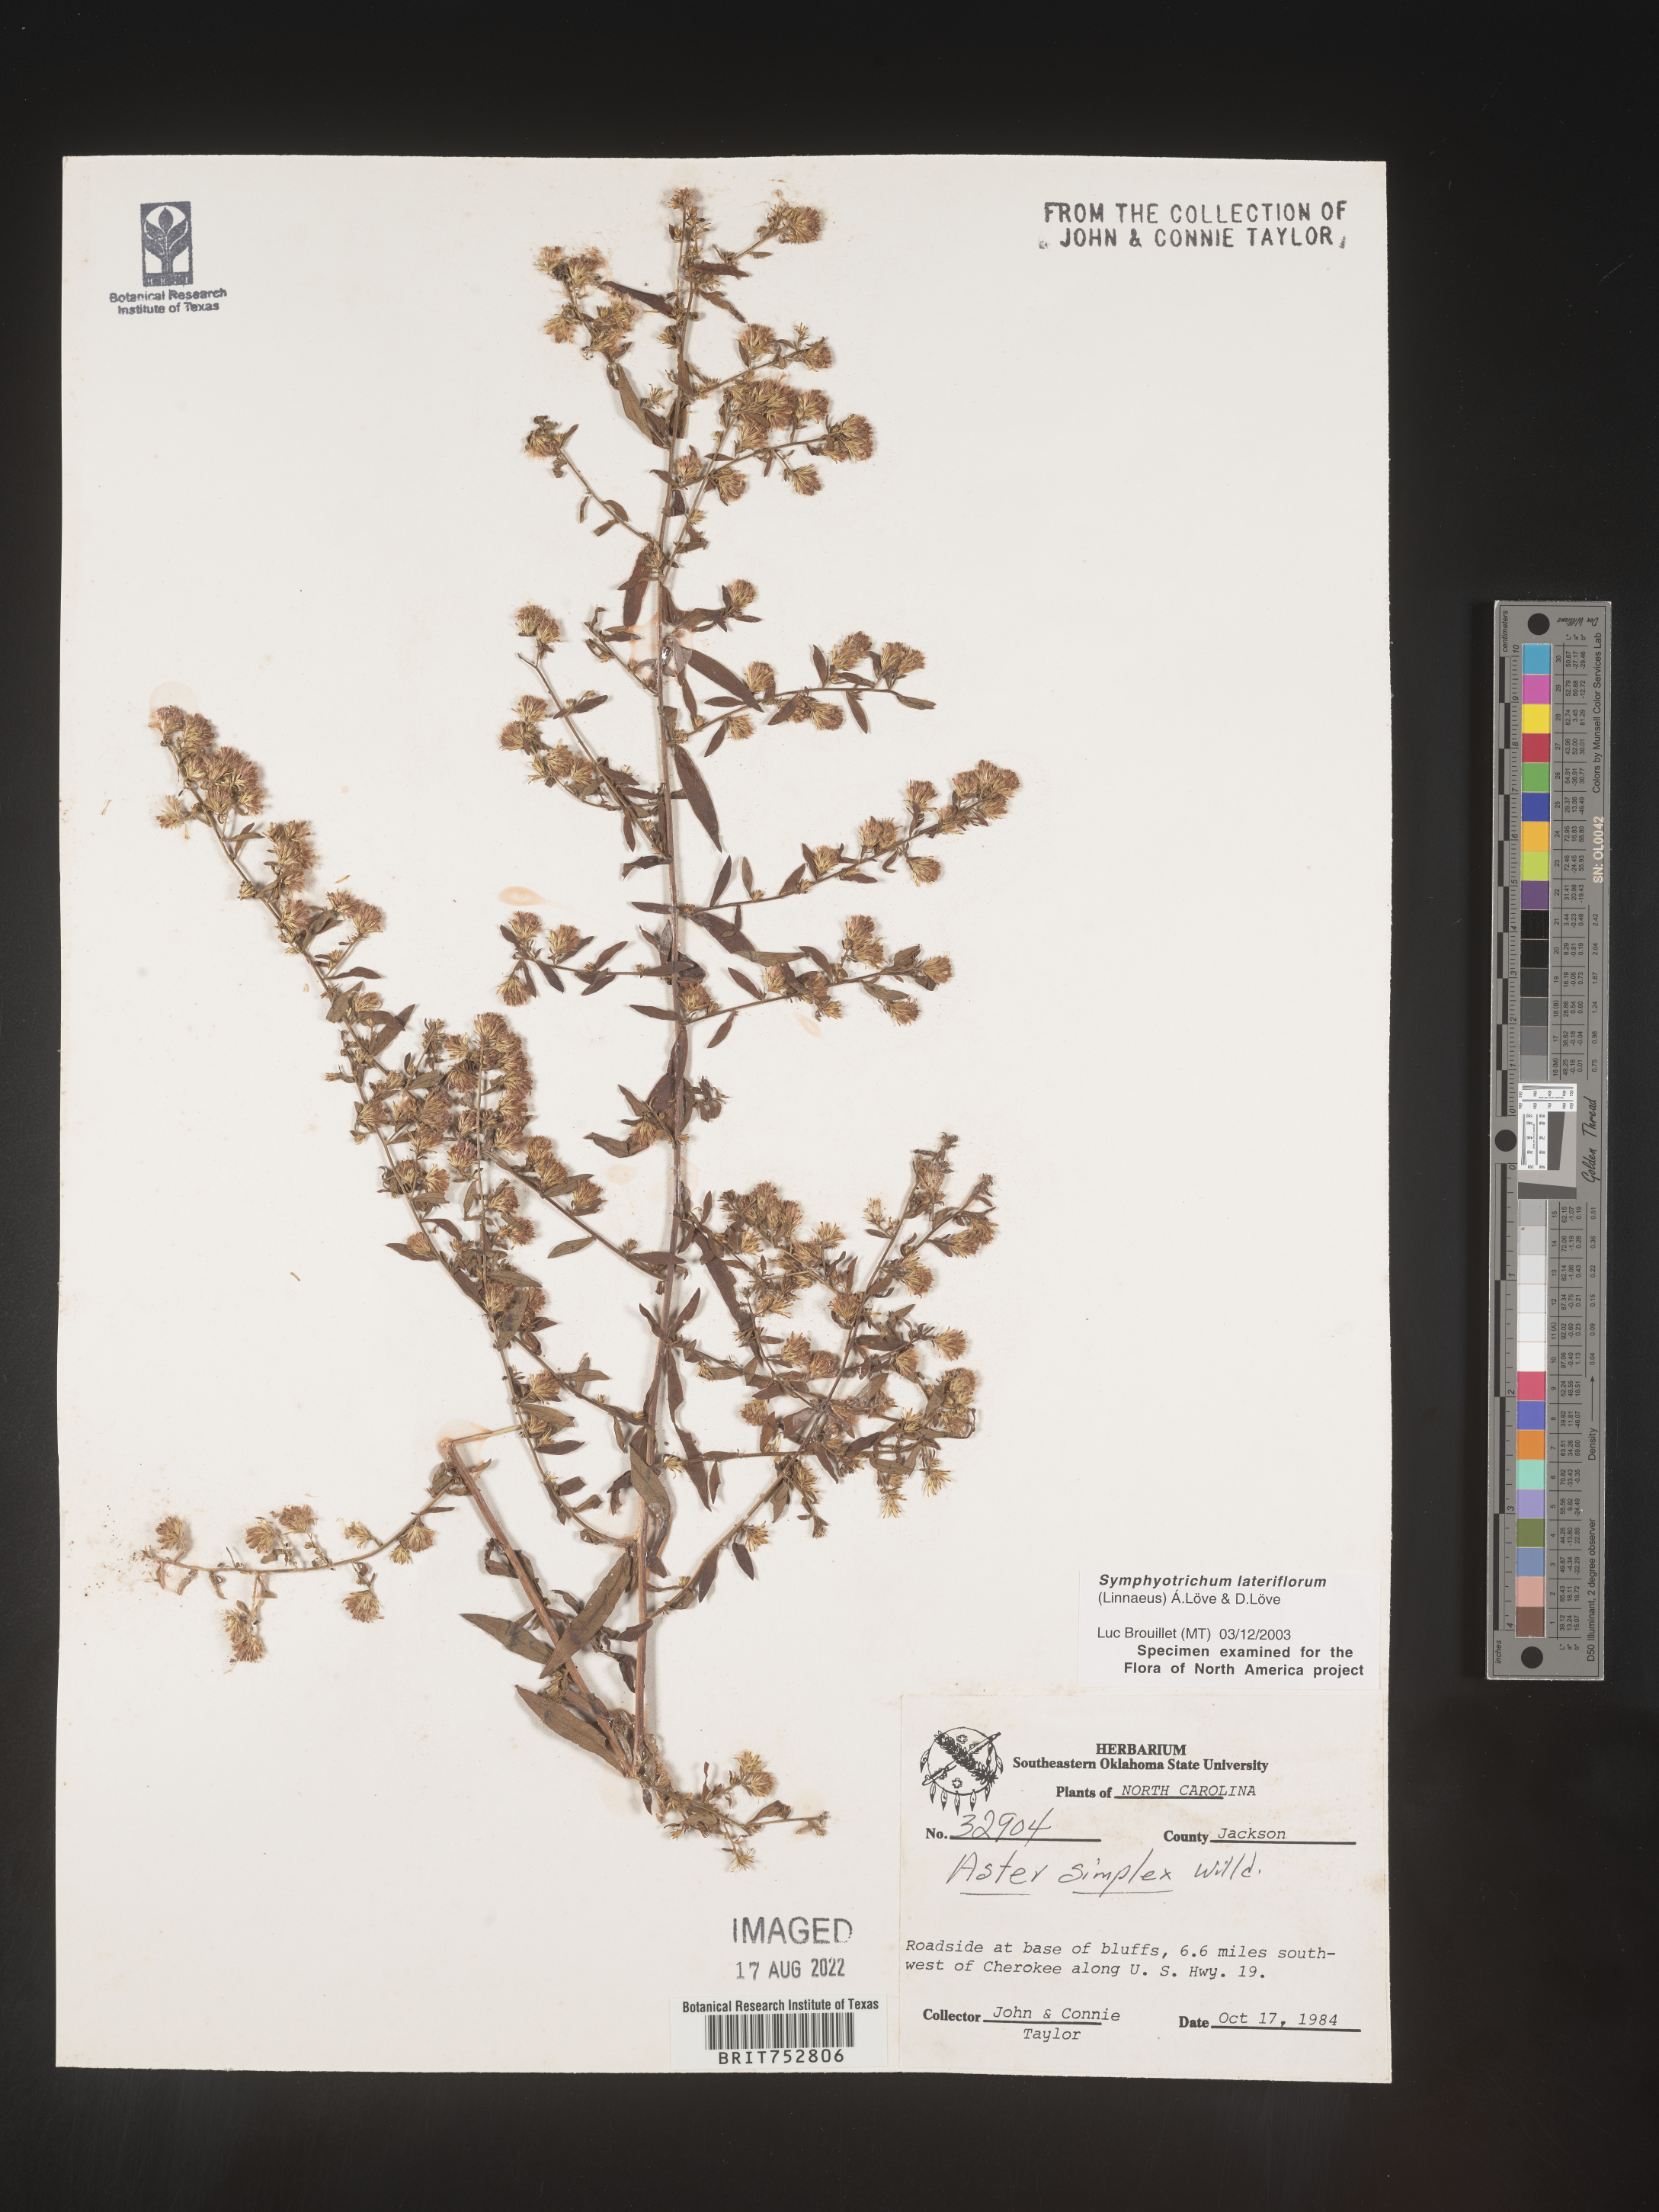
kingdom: Plantae
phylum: Tracheophyta
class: Magnoliopsida
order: Asterales
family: Asteraceae
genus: Symphyotrichum
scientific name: Symphyotrichum lateriflorum
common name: Calico aster
